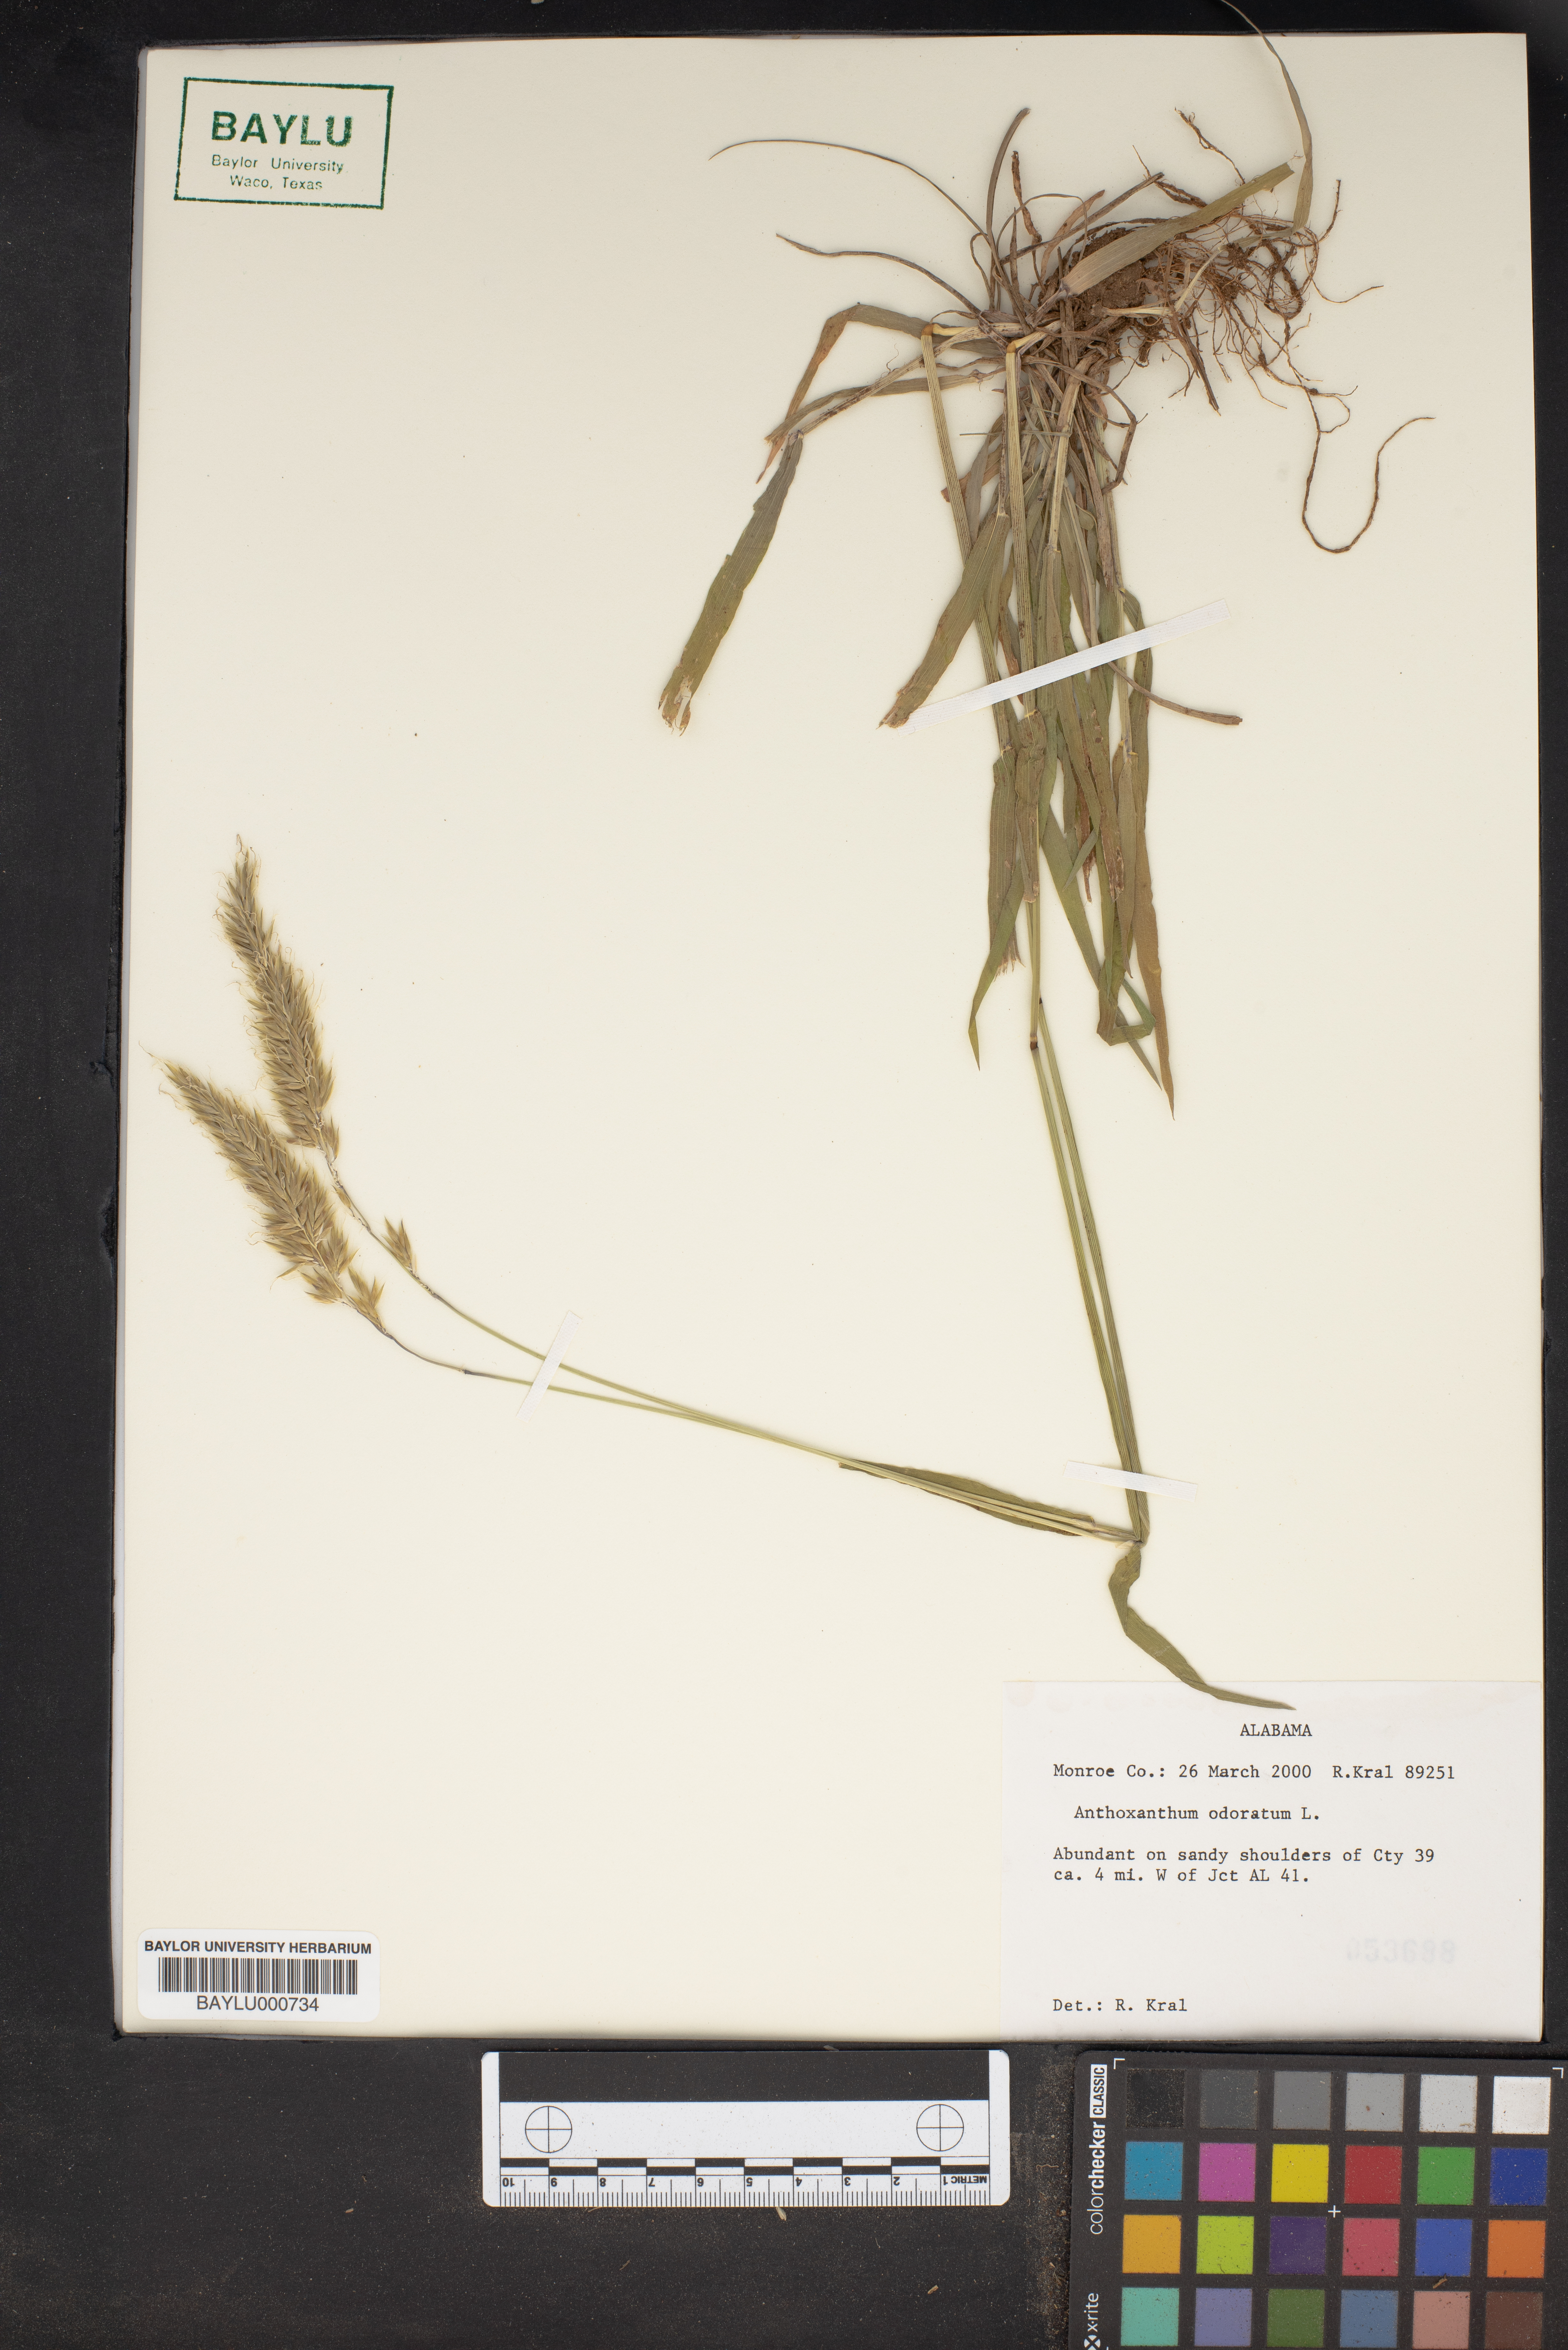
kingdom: Plantae
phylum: Tracheophyta
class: Liliopsida
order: Poales
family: Poaceae
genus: Anthoxanthum
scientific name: Anthoxanthum odoratum
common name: Sweet vernalgrass
